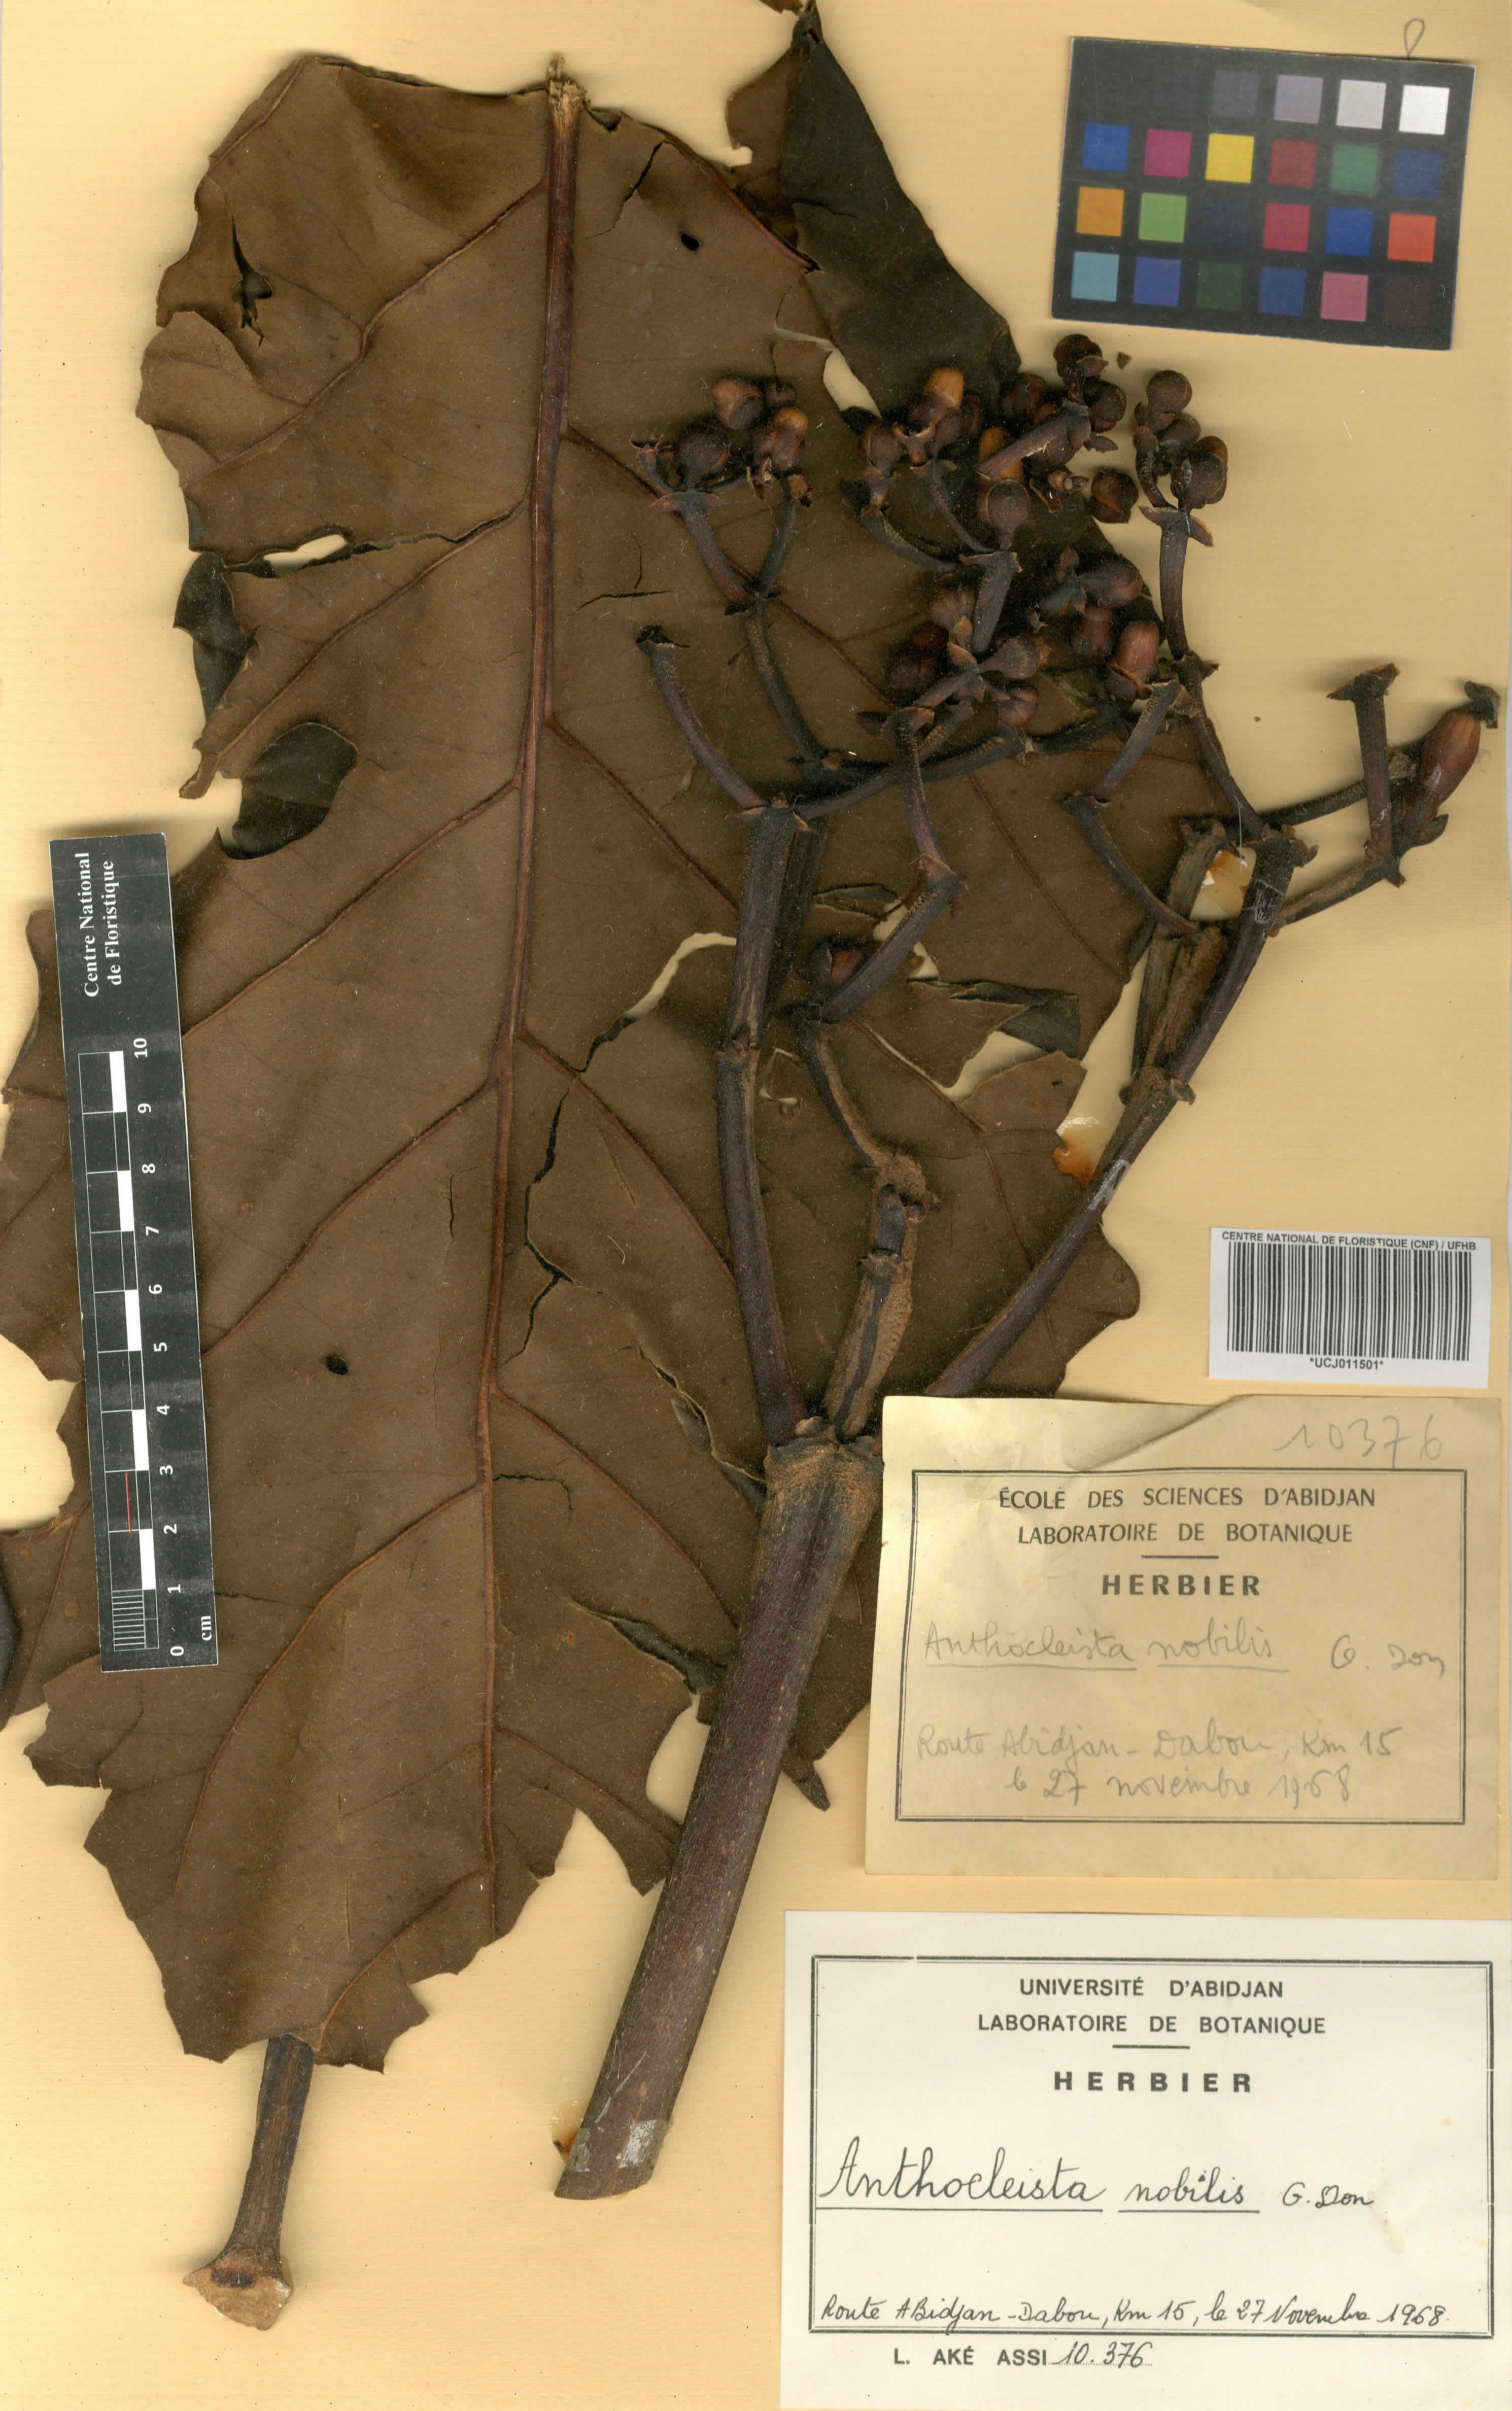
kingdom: Plantae
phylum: Tracheophyta
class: Magnoliopsida
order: Gentianales
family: Gentianaceae
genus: Anthocleista
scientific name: Anthocleista nobilis
